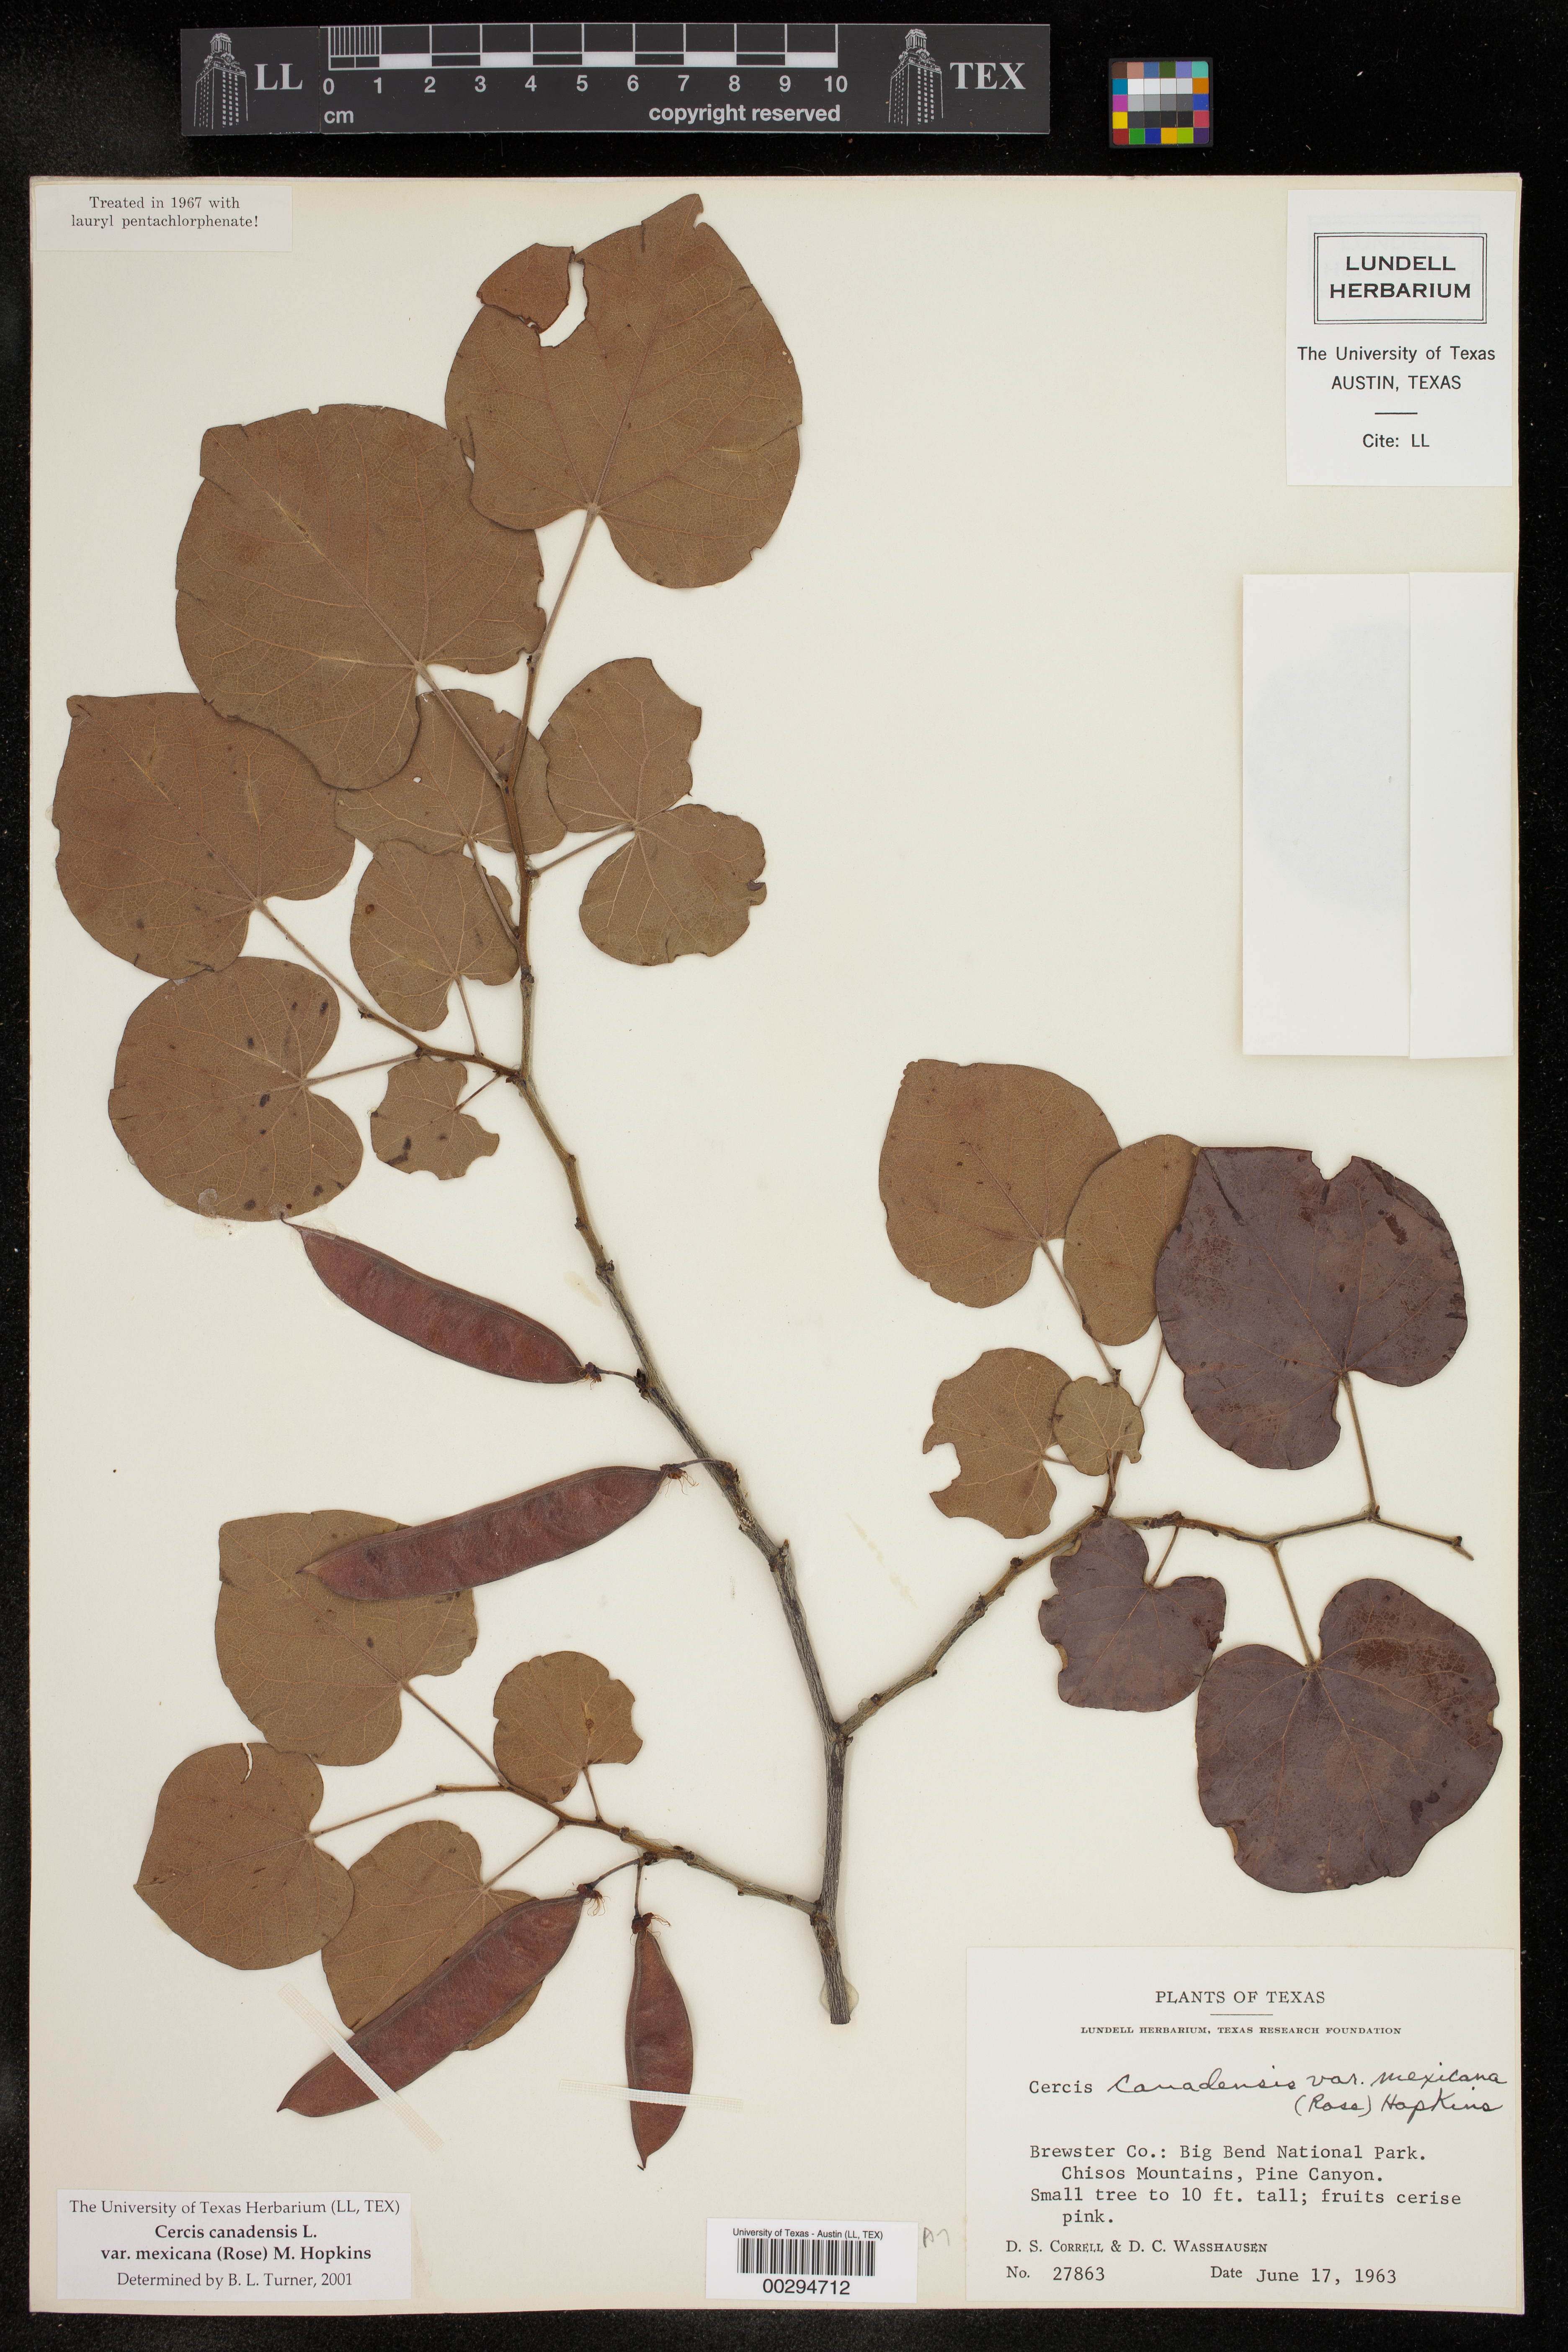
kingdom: Plantae
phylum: Tracheophyta
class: Magnoliopsida
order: Fabales
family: Fabaceae
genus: Cercis
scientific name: Cercis canadensis
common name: Eastern redbud
